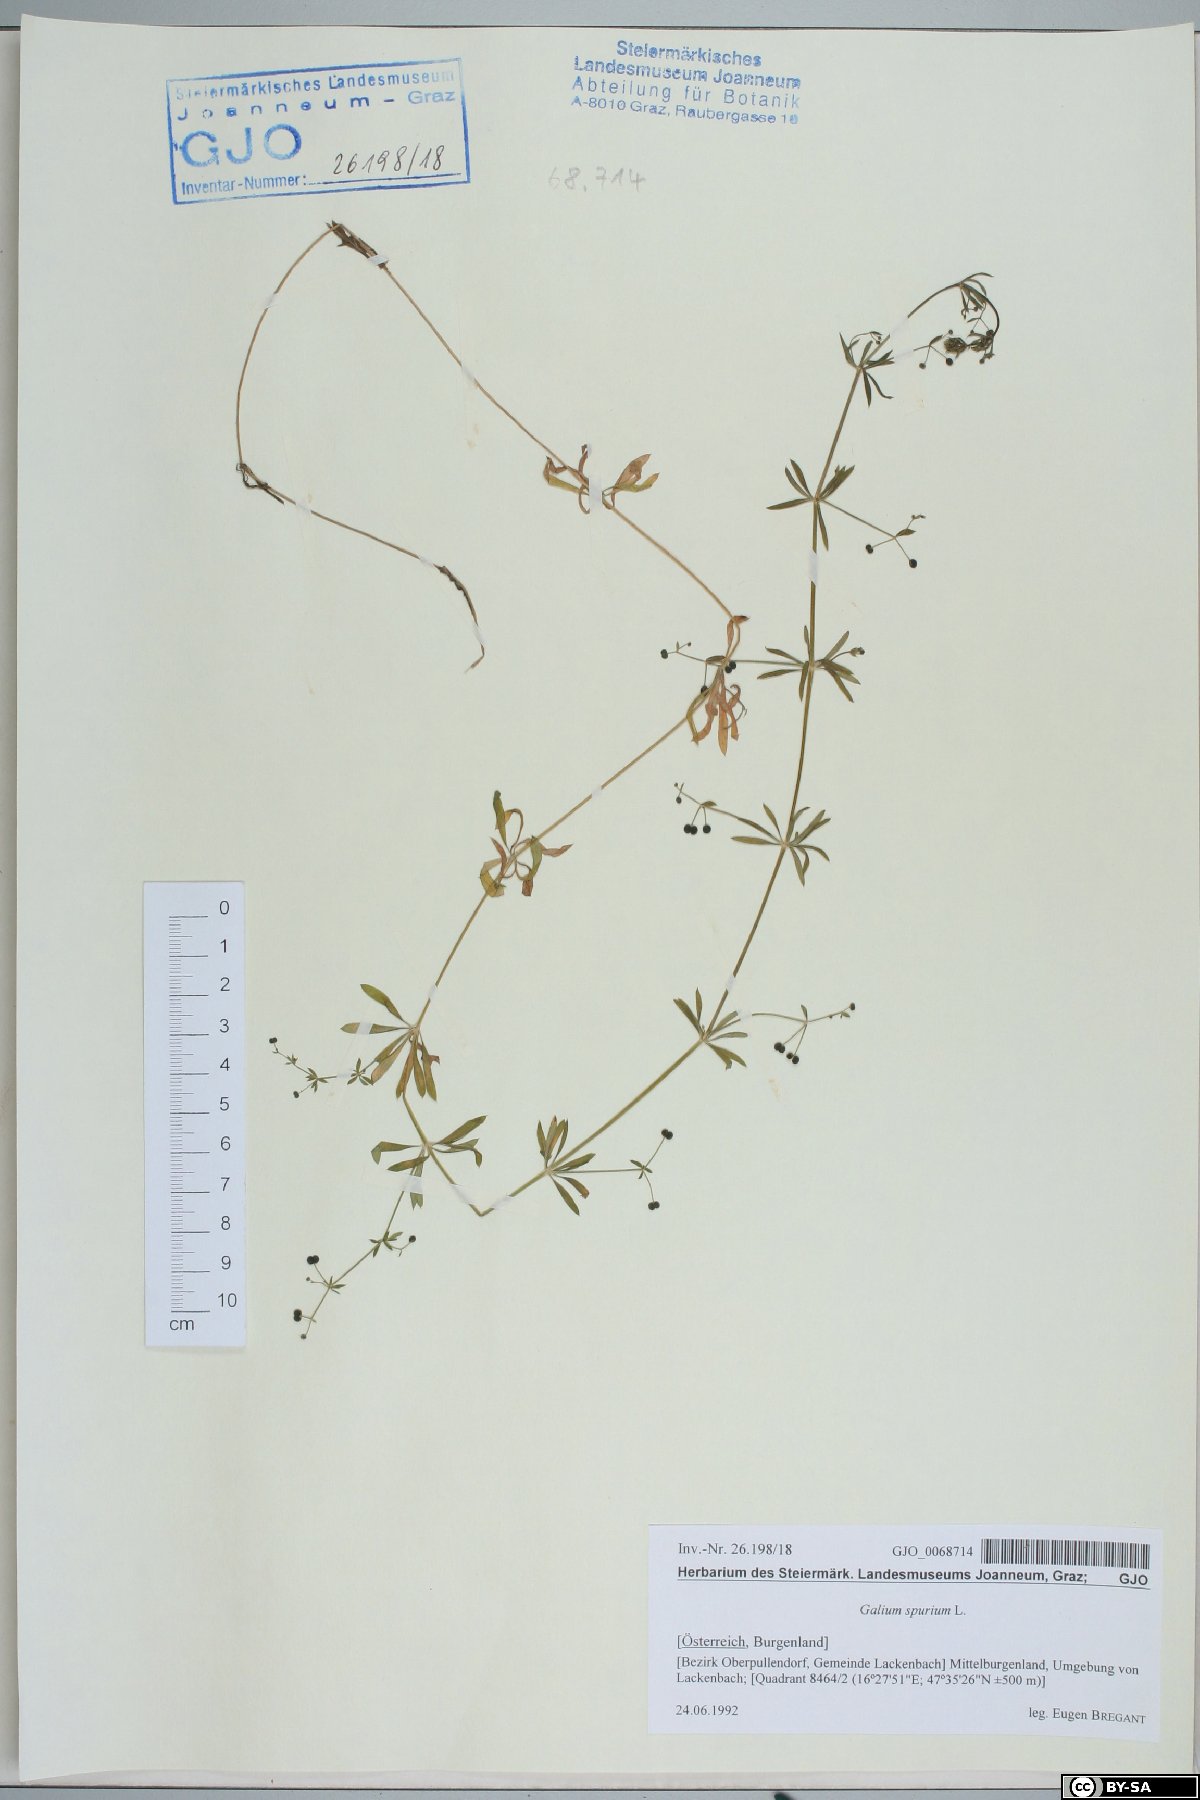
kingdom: Plantae
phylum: Tracheophyta
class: Magnoliopsida
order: Gentianales
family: Rubiaceae
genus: Galium
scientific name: Galium spurium
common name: False cleavers
